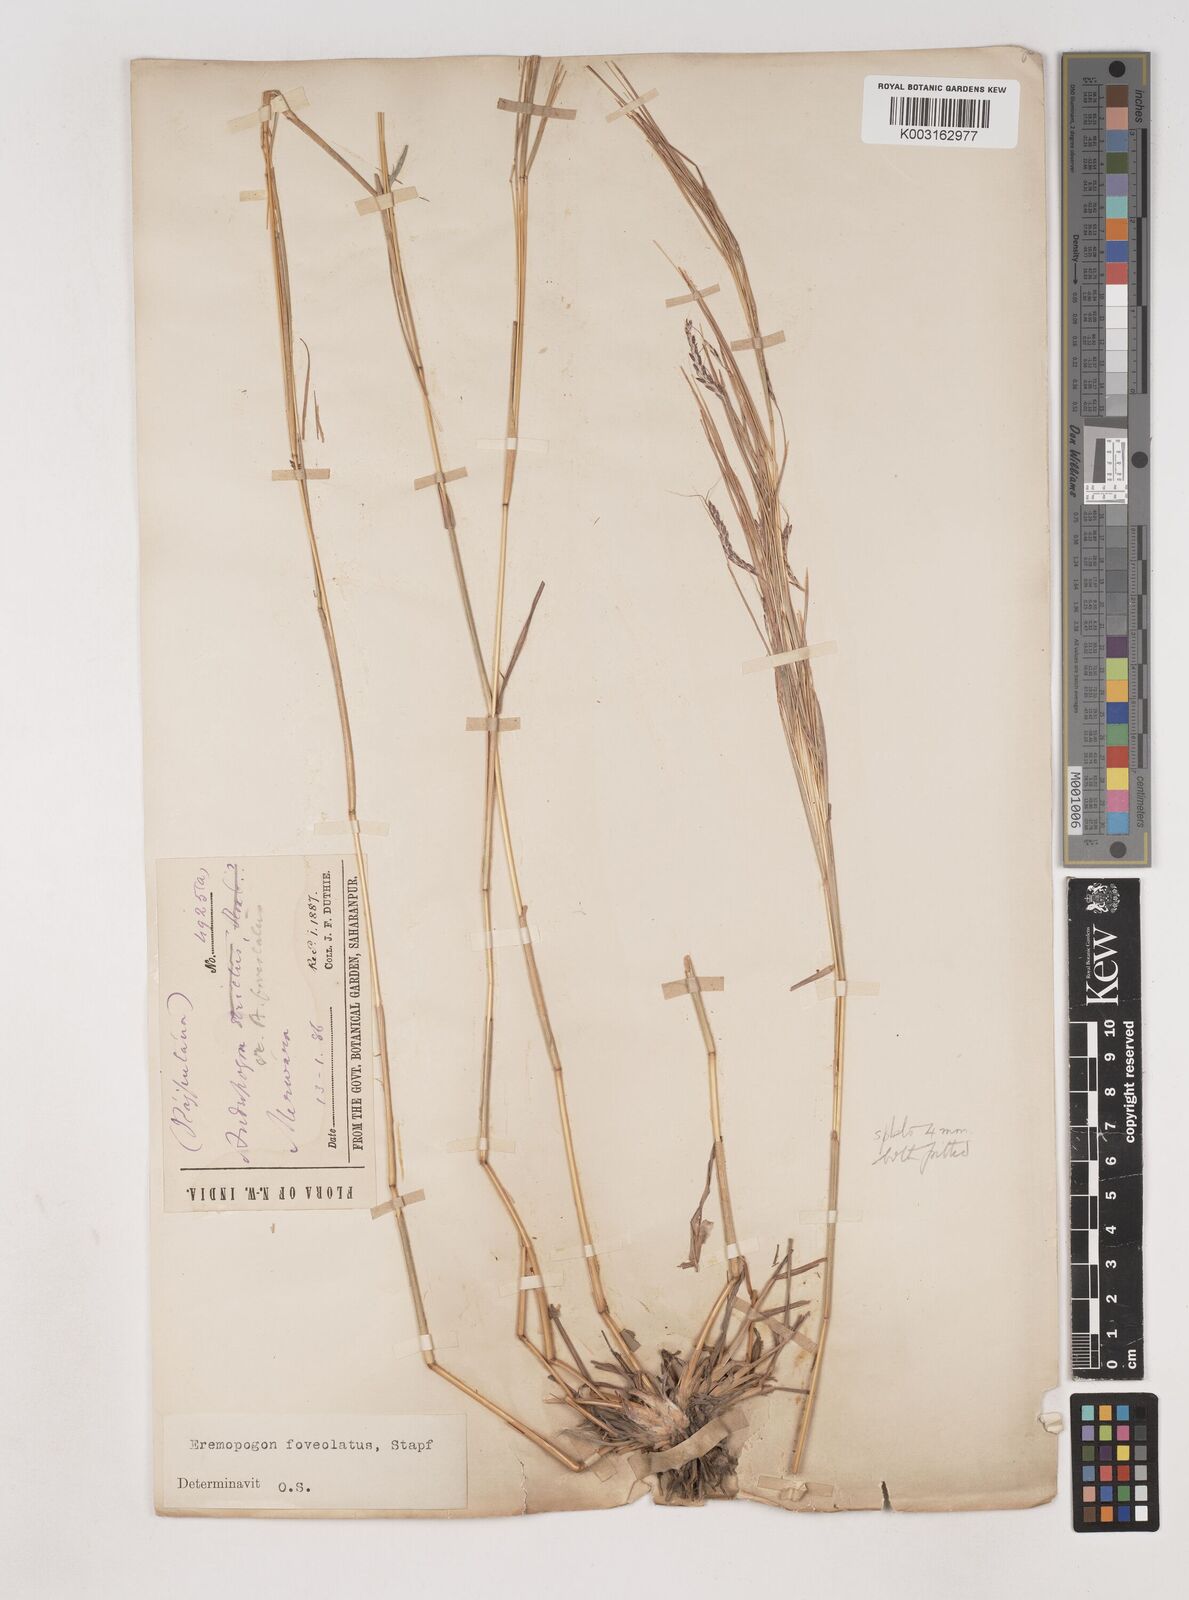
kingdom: Plantae
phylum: Tracheophyta
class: Liliopsida
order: Poales
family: Poaceae
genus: Dichanthium
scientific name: Dichanthium foveolatum
